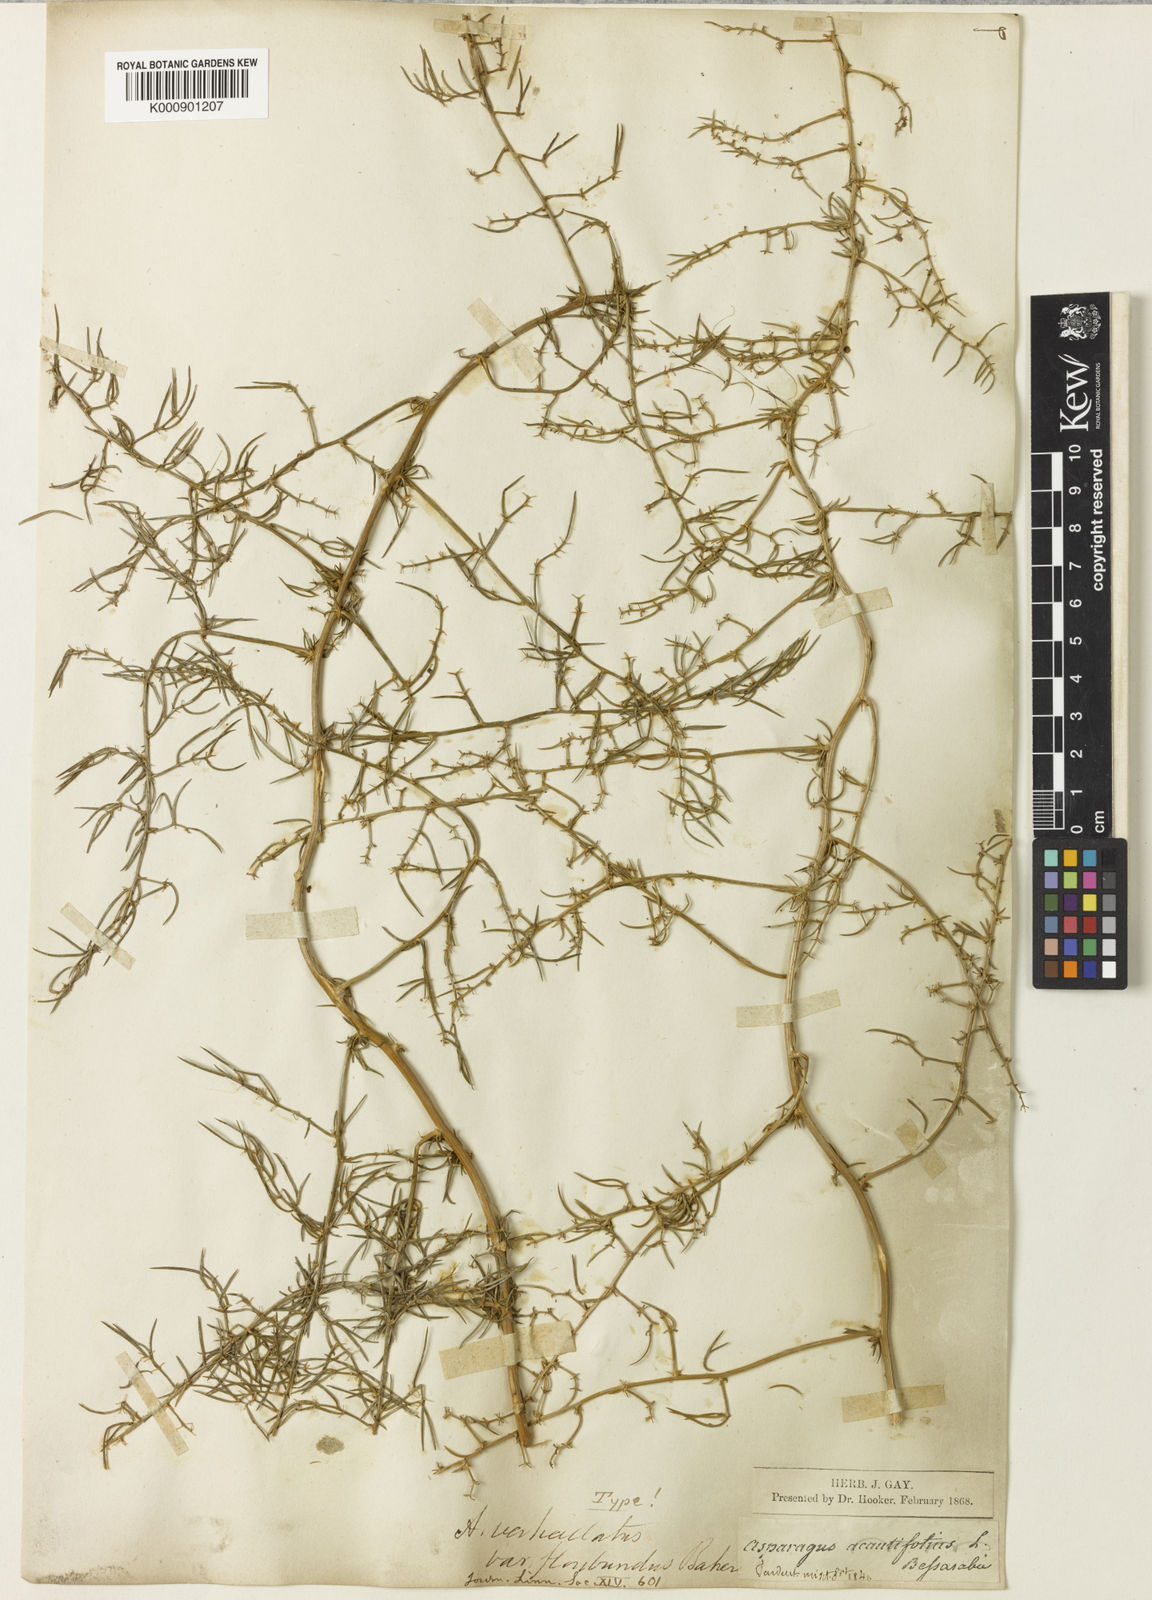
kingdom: Plantae
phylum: Tracheophyta
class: Liliopsida
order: Asparagales
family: Asparagaceae
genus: Asparagus
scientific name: Asparagus verticillatus
